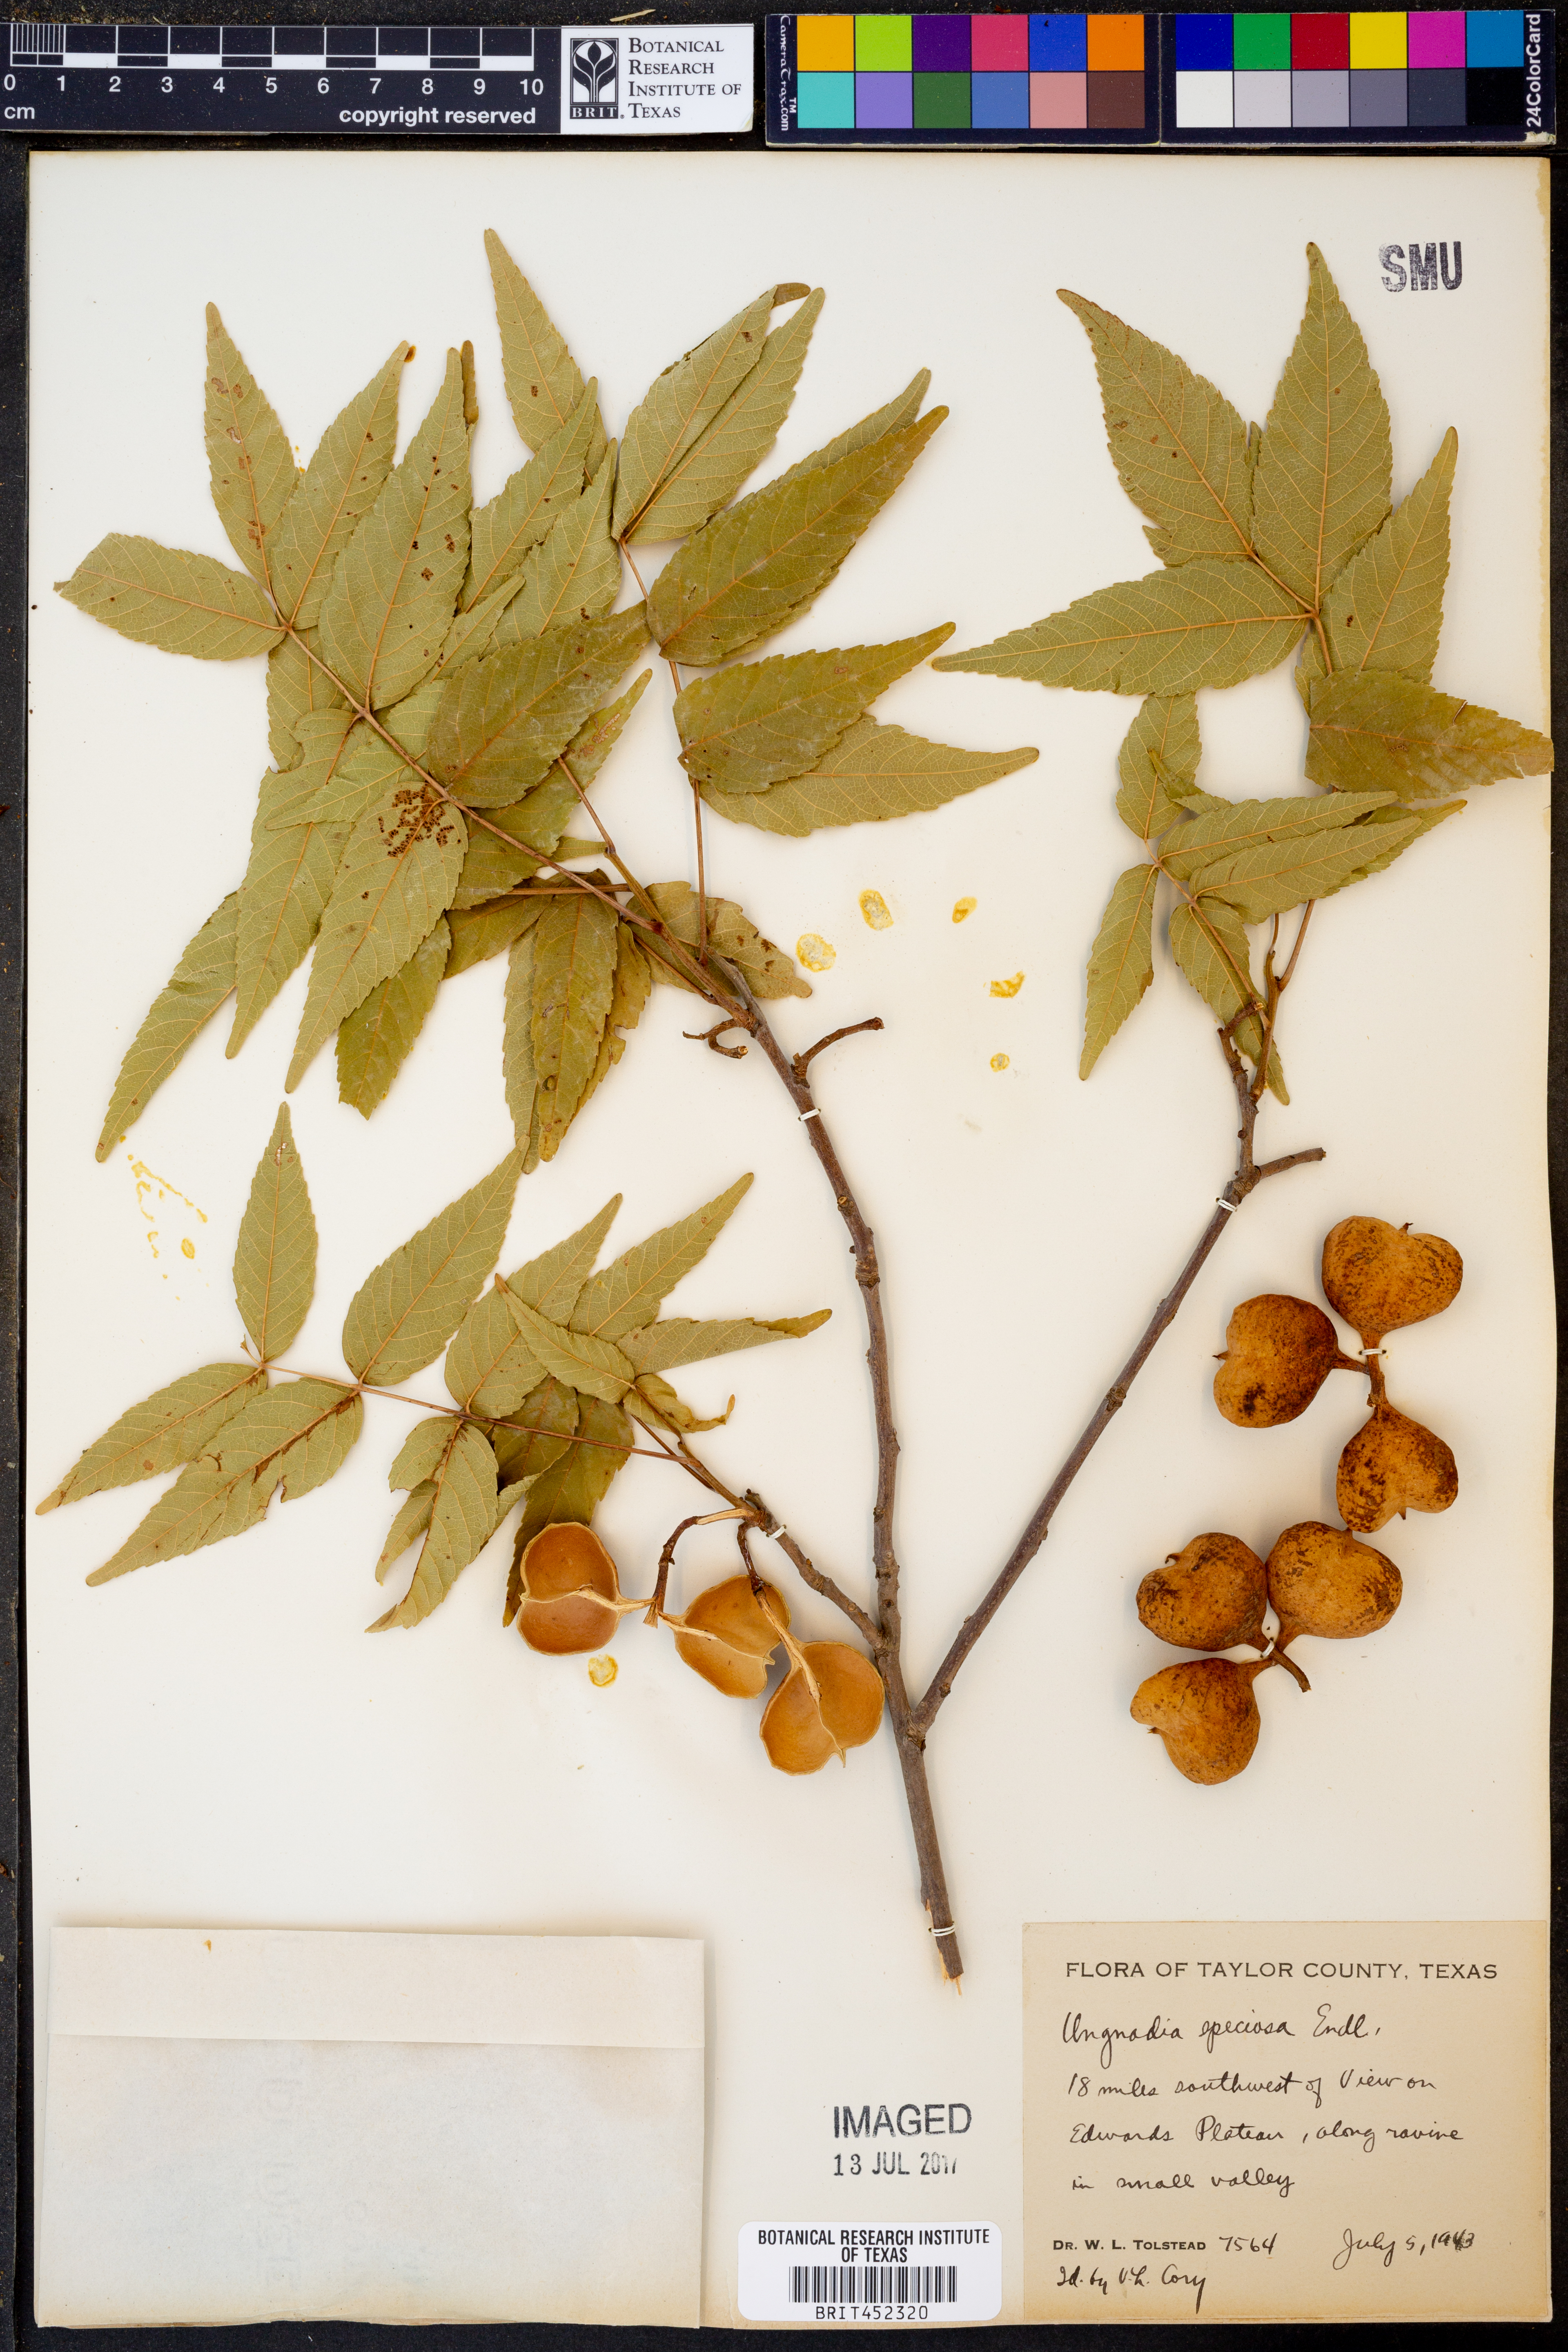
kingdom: Plantae
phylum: Tracheophyta
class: Magnoliopsida
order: Sapindales
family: Sapindaceae
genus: Ungnadia
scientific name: Ungnadia speciosa
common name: Texas-buckeye
